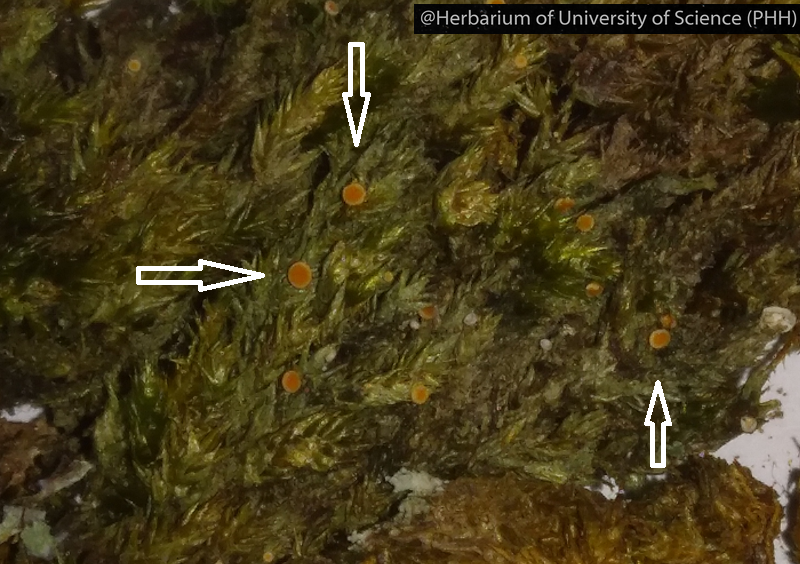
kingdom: Fungi
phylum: Ascomycota
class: Lecanoromycetes
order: Ostropales
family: Coenogoniaceae
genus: Coenogonium
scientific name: Coenogonium luteum
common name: Orange dimple lichen
